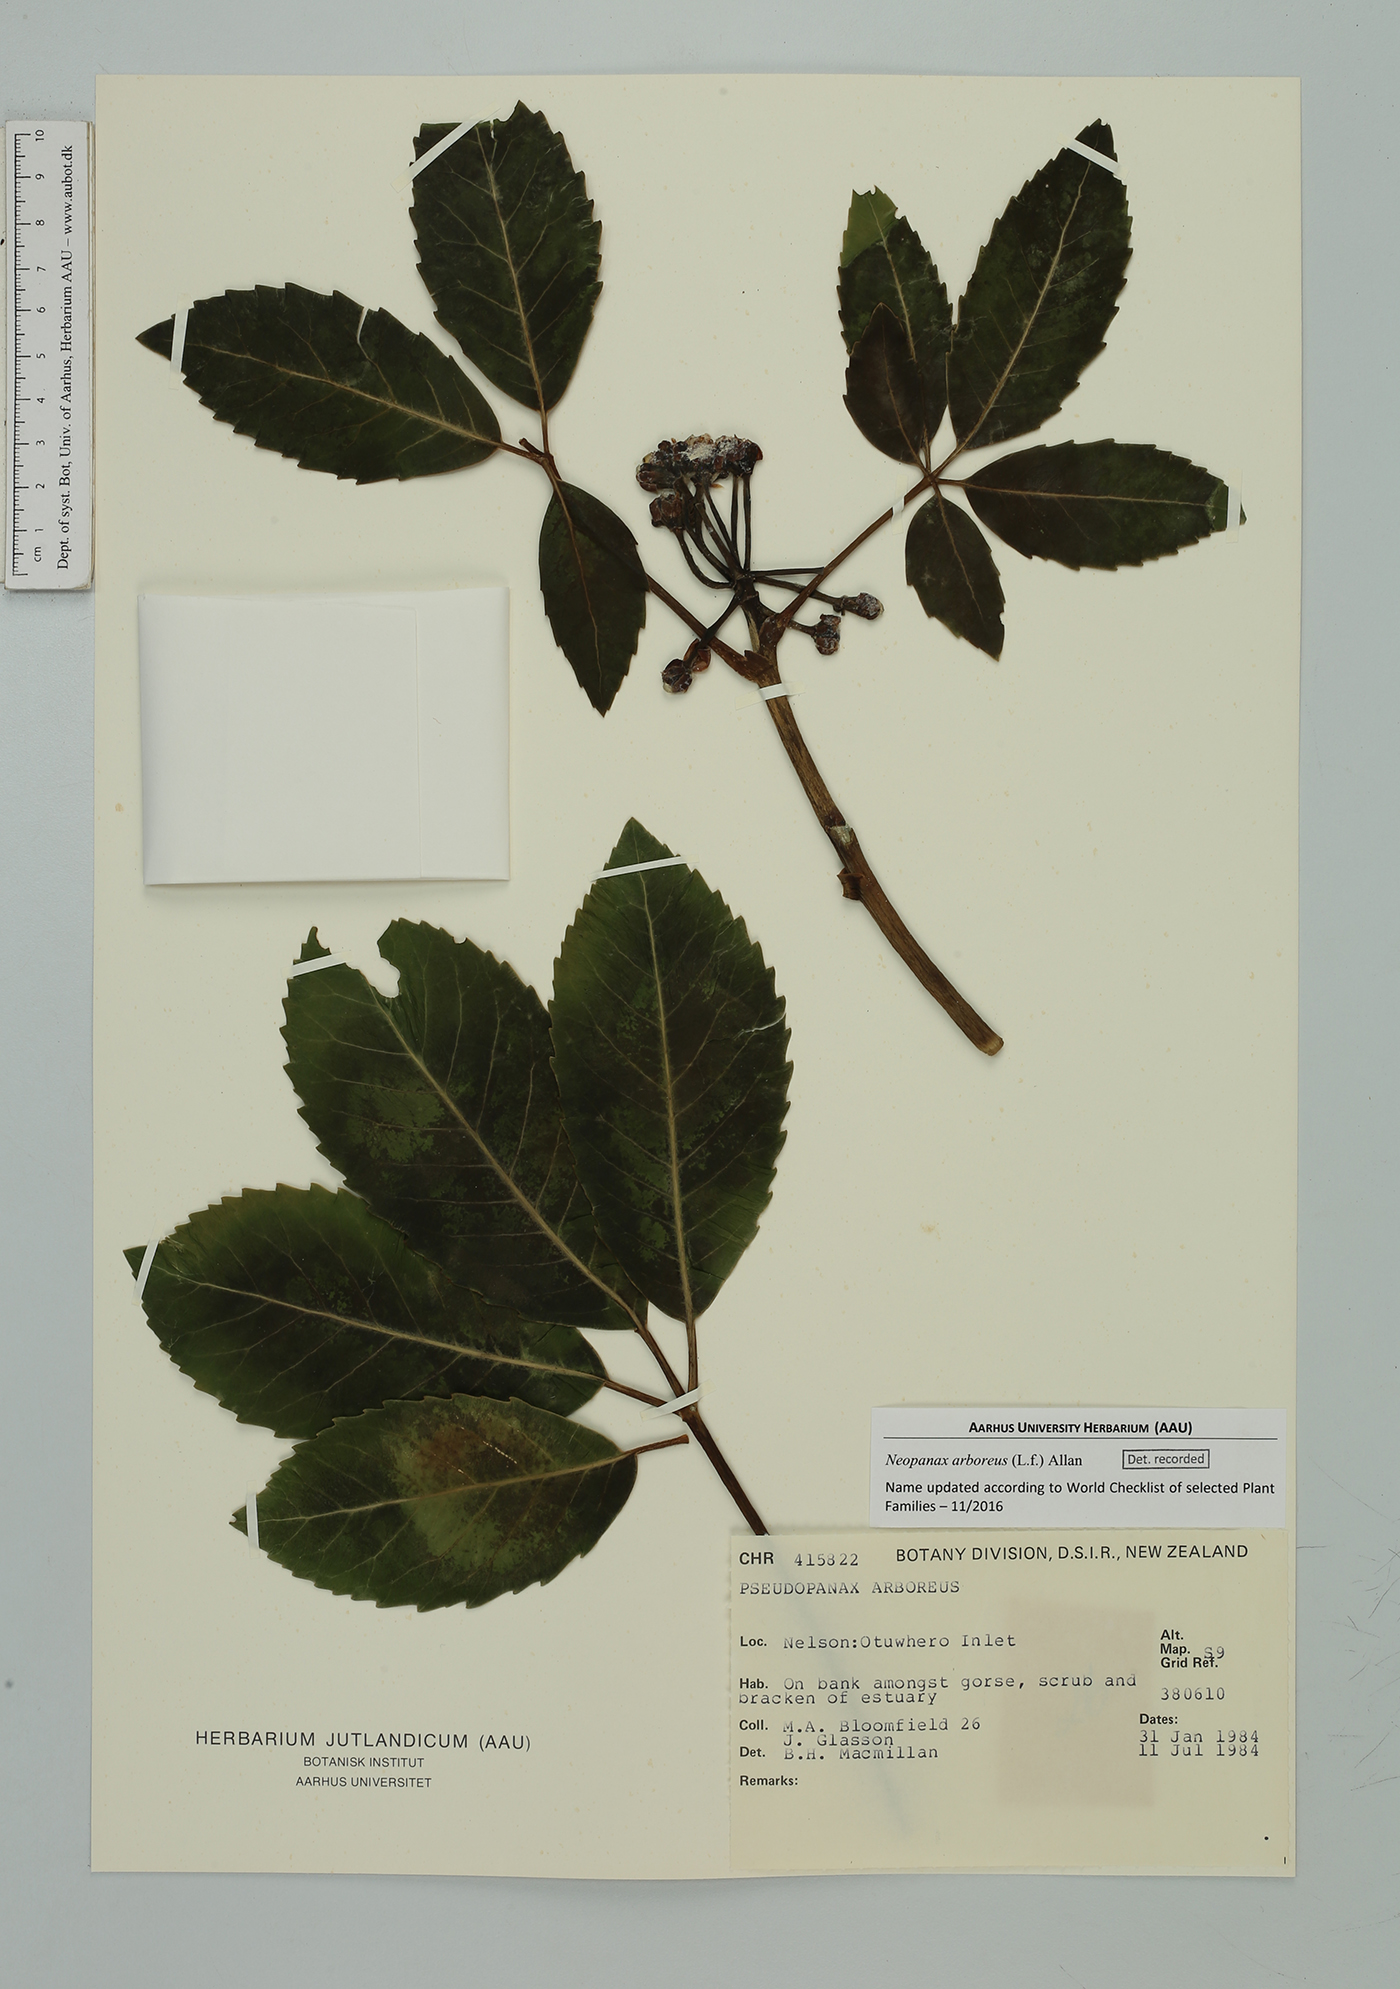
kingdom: Plantae
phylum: Tracheophyta
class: Magnoliopsida
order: Apiales
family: Araliaceae
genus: Neopanax
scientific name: Neopanax arboreus
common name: Five-fingers
